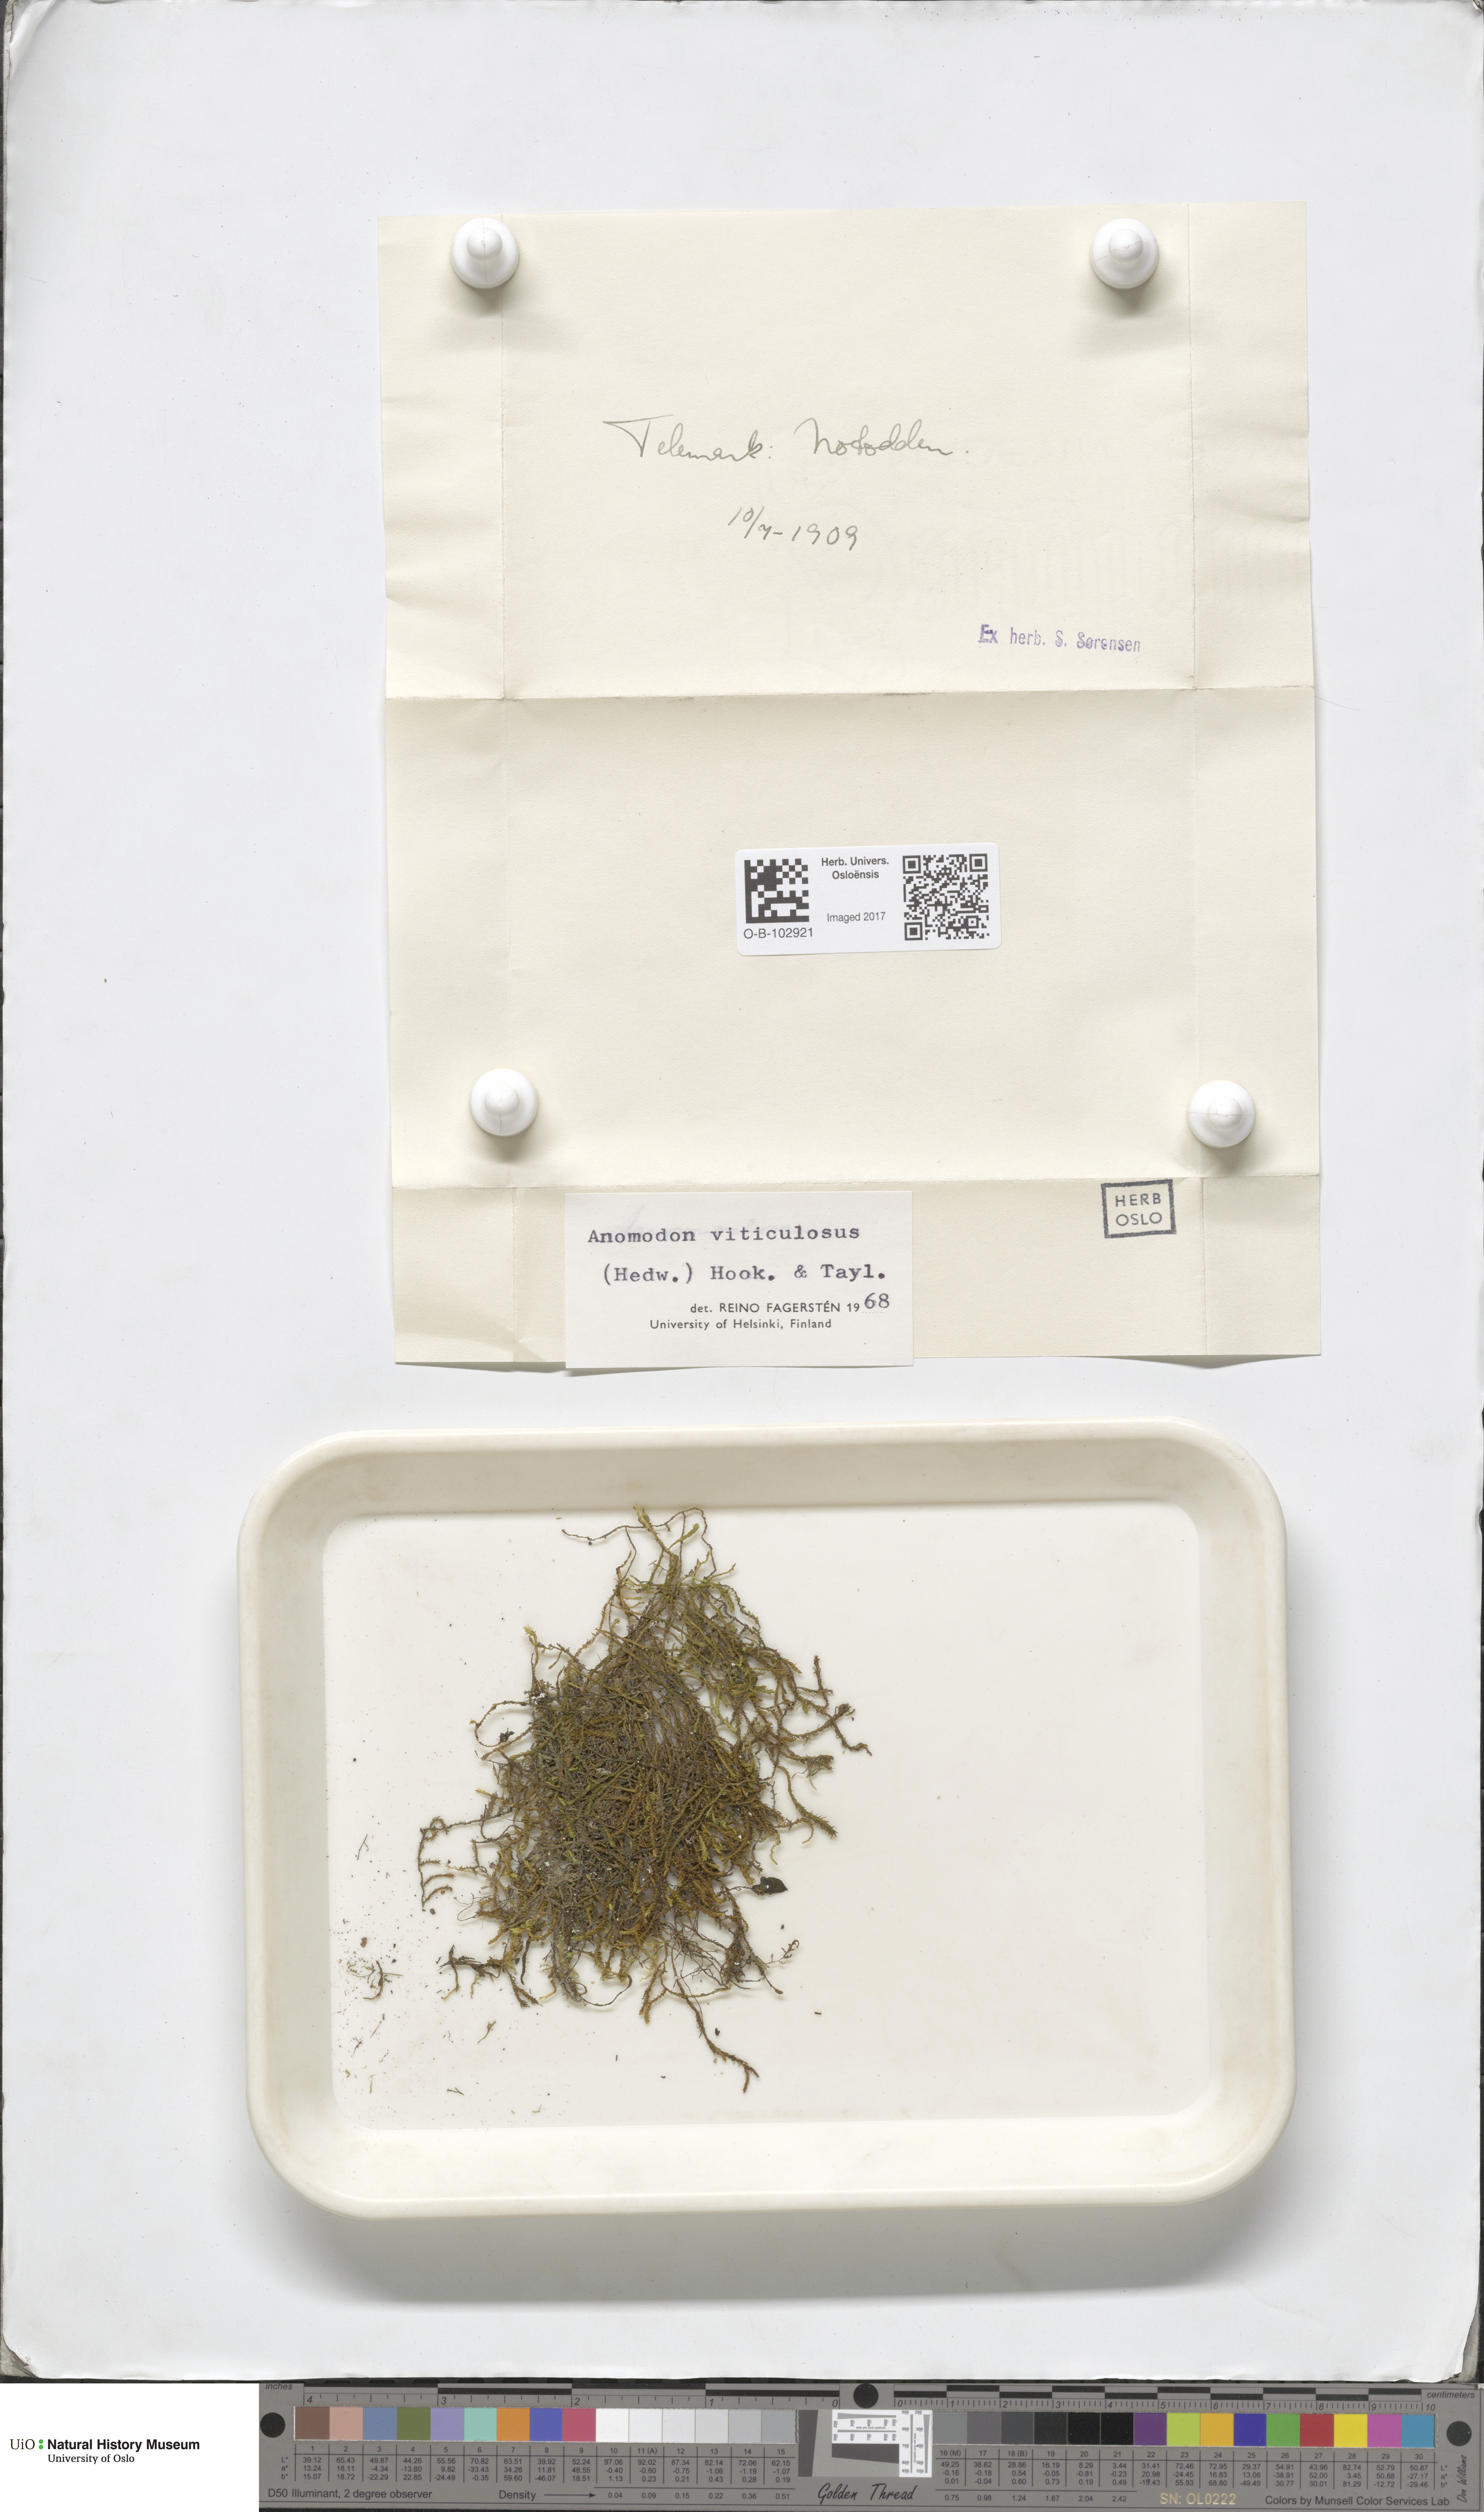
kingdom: Plantae
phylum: Bryophyta
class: Bryopsida
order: Hypnales
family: Anomodontaceae
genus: Anomodon
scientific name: Anomodon viticulosus
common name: Tall anomodon
